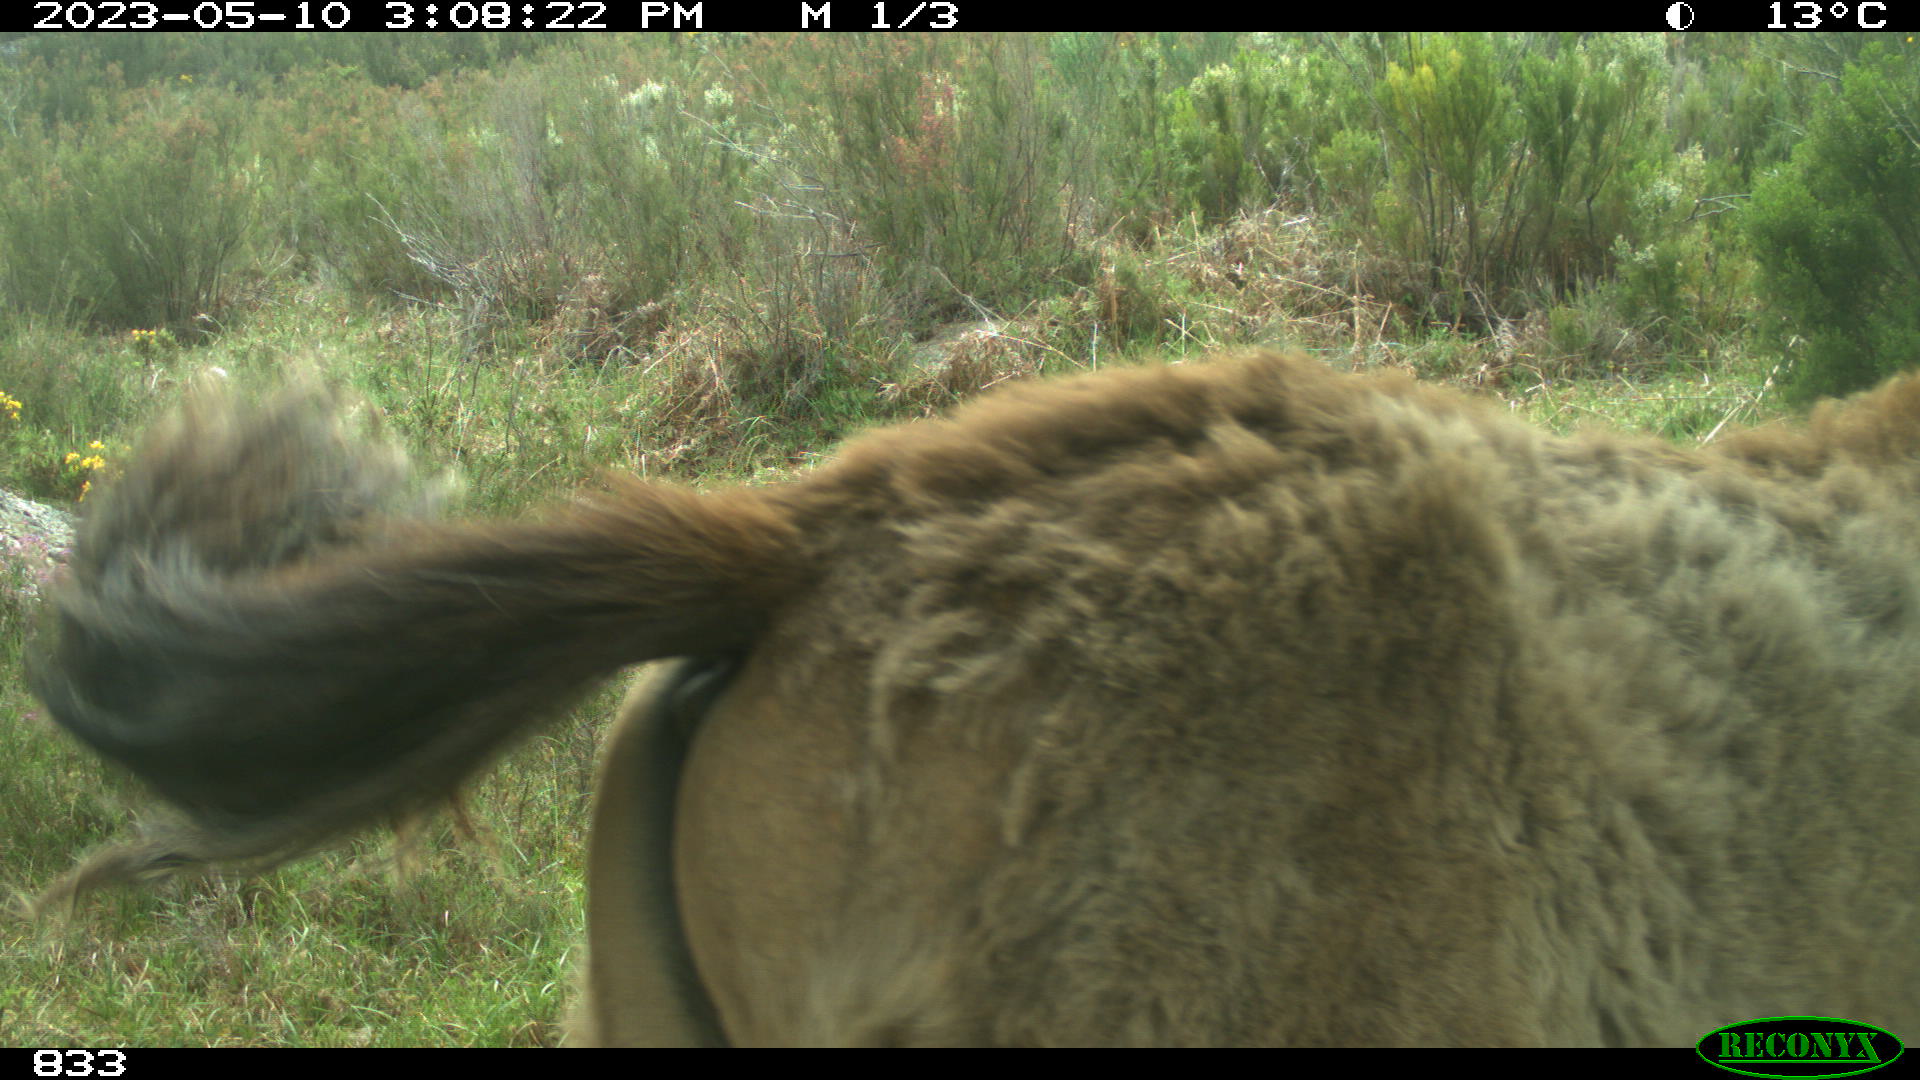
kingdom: Animalia
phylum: Chordata
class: Mammalia
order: Perissodactyla
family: Equidae
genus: Equus
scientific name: Equus caballus
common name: Horse
